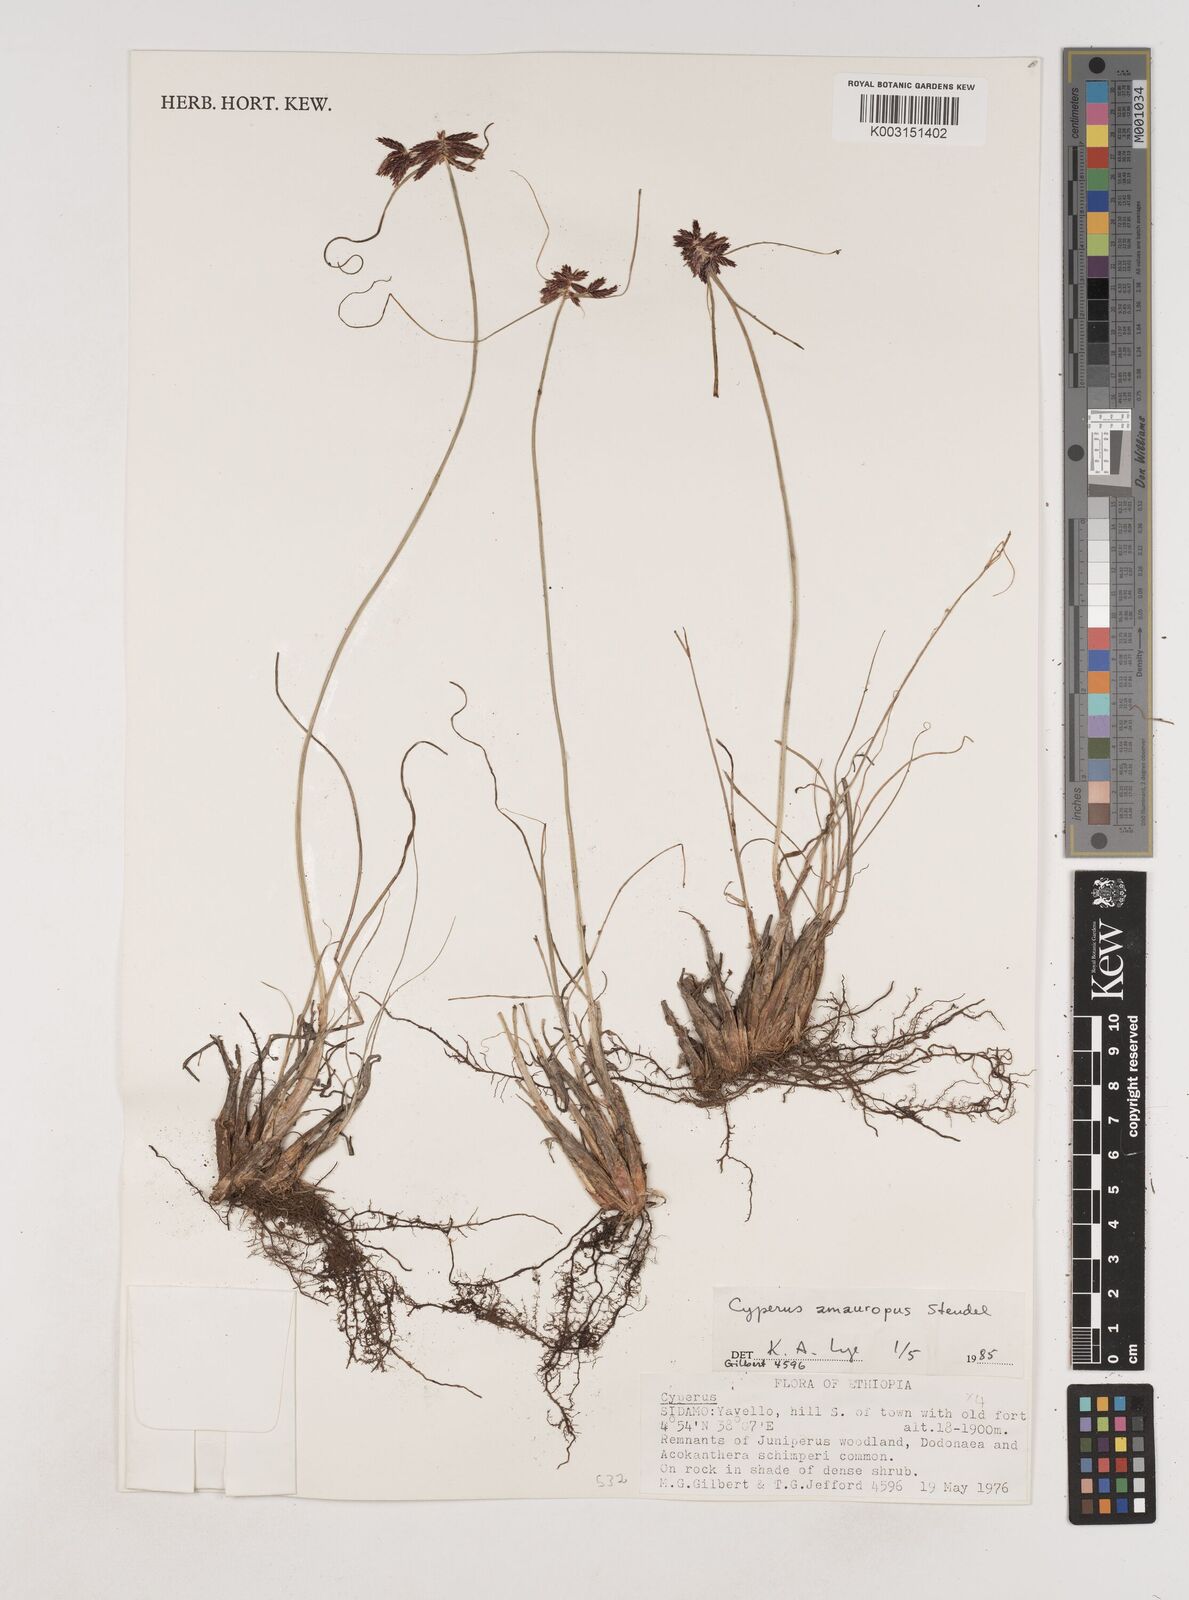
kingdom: Plantae
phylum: Tracheophyta
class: Liliopsida
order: Poales
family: Cyperaceae
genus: Cyperus
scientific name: Cyperus amauropus
